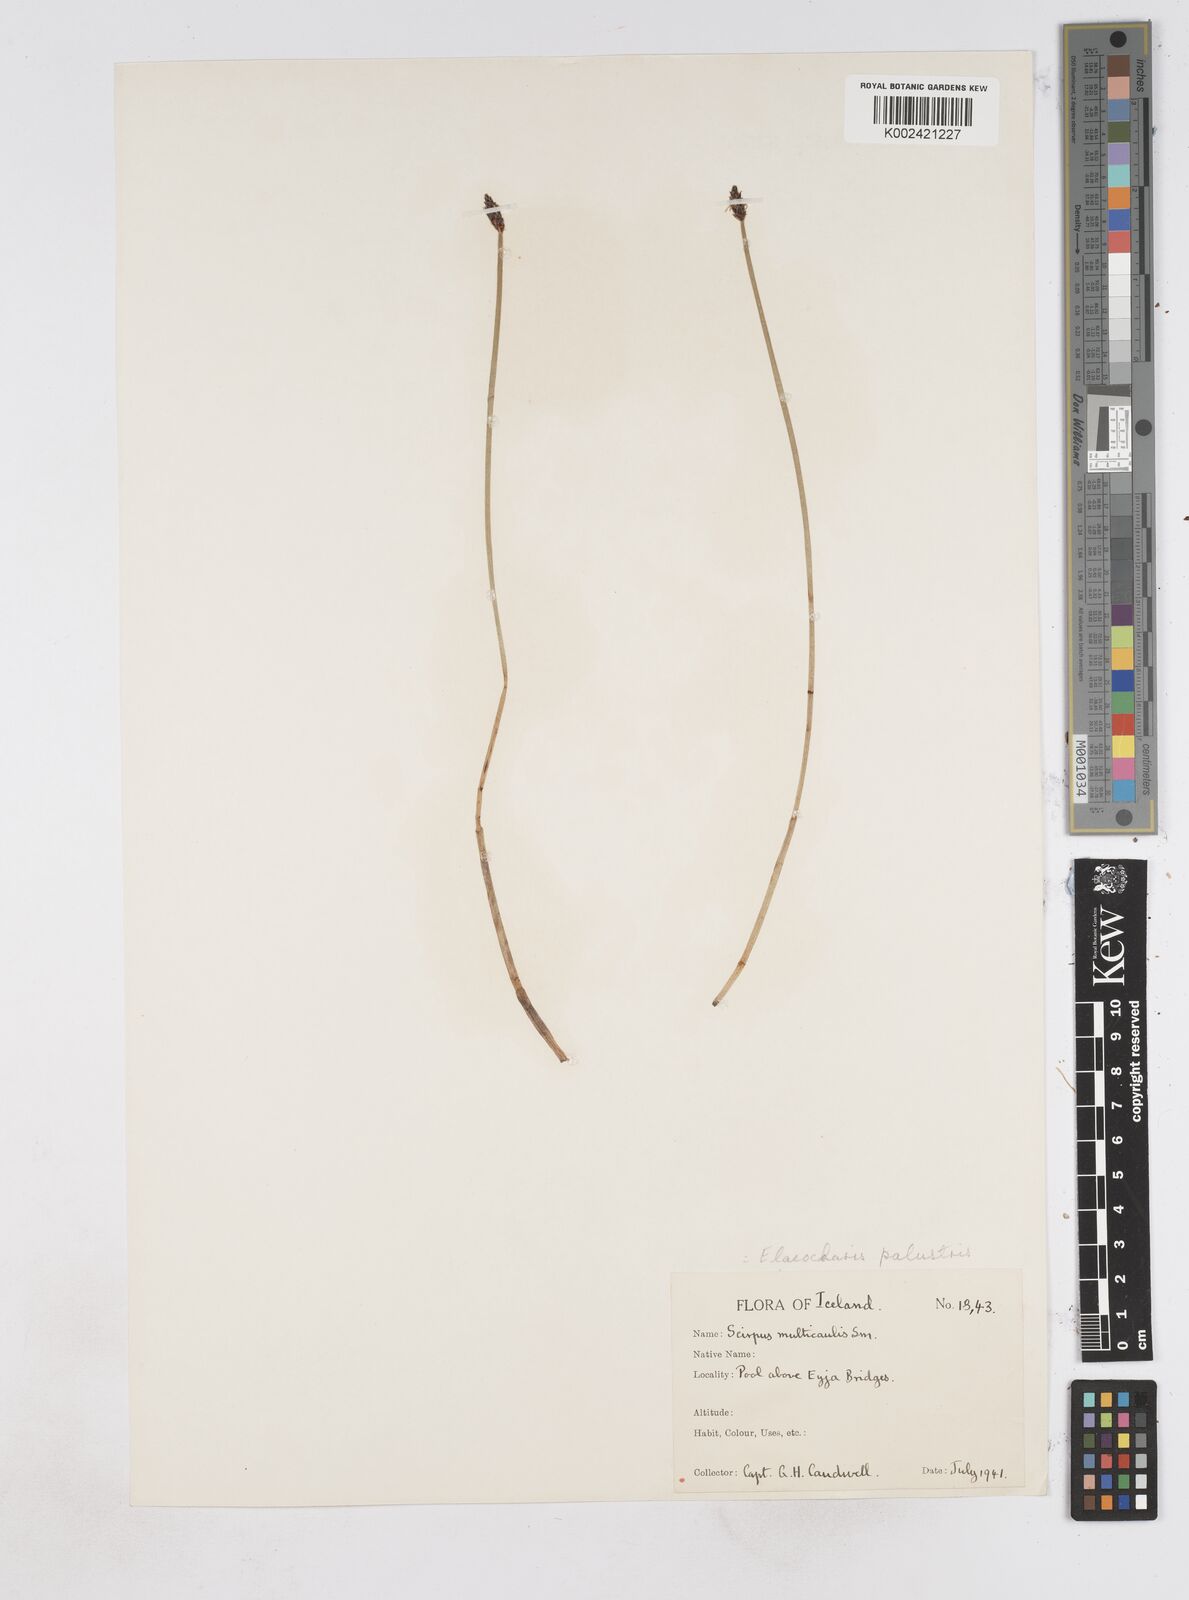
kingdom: Plantae
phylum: Tracheophyta
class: Liliopsida
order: Poales
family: Cyperaceae
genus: Eleocharis
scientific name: Eleocharis palustris
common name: Common spike-rush
